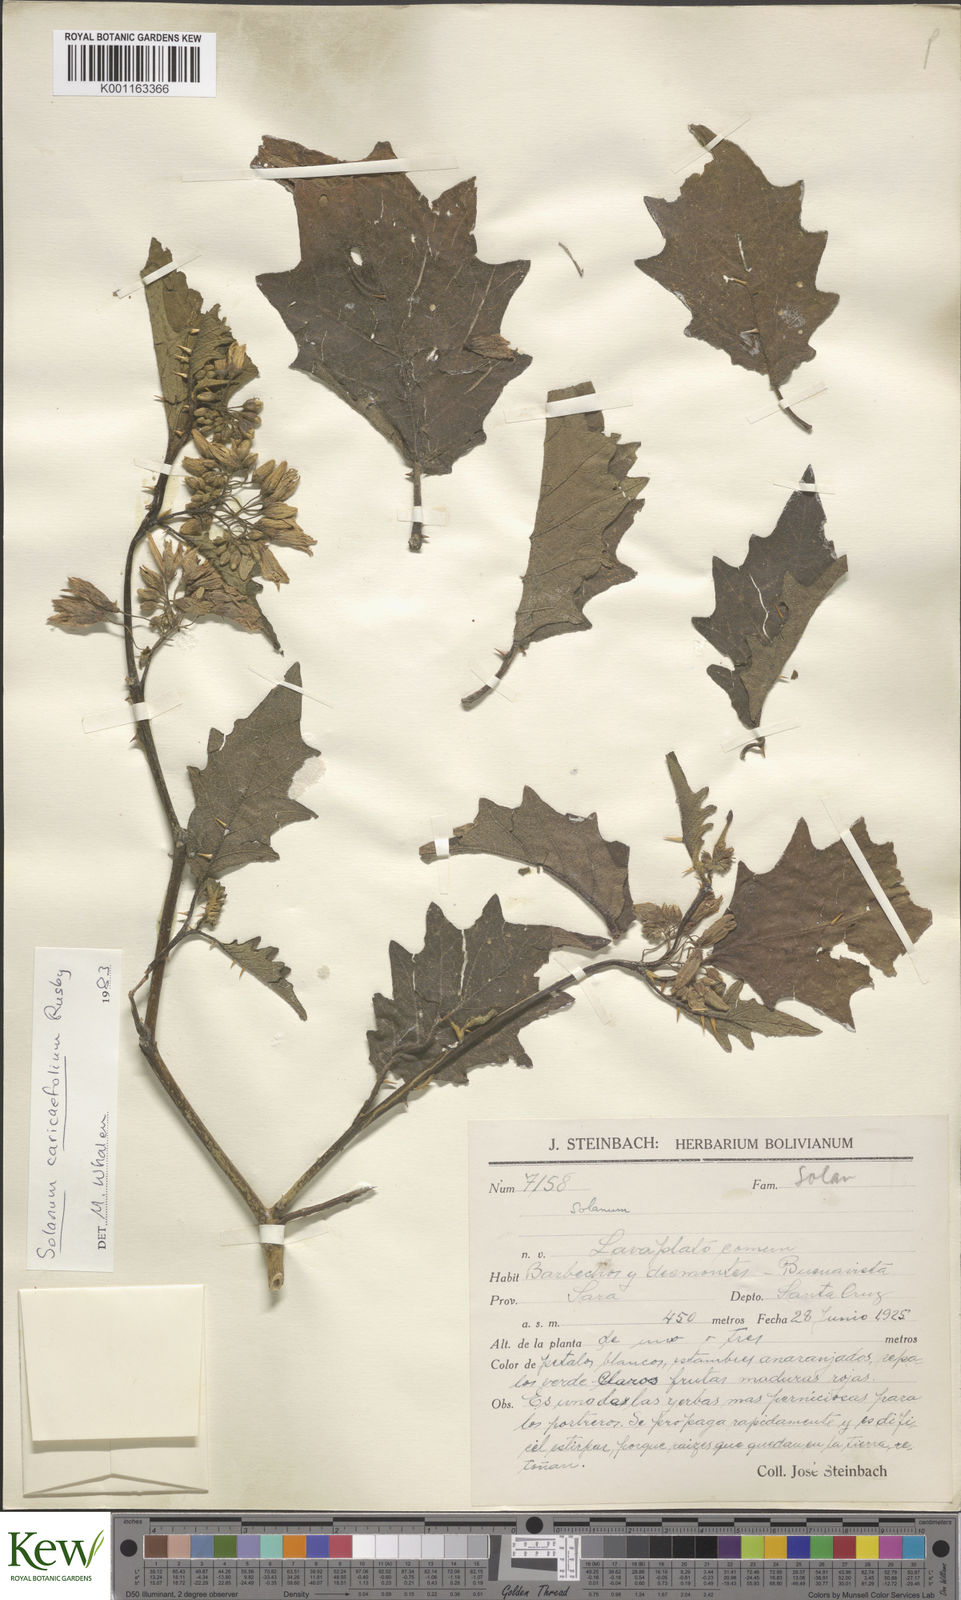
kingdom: Plantae
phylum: Tracheophyta
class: Magnoliopsida
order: Solanales
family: Solanaceae
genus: Solanum
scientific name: Solanum caricaefolium
